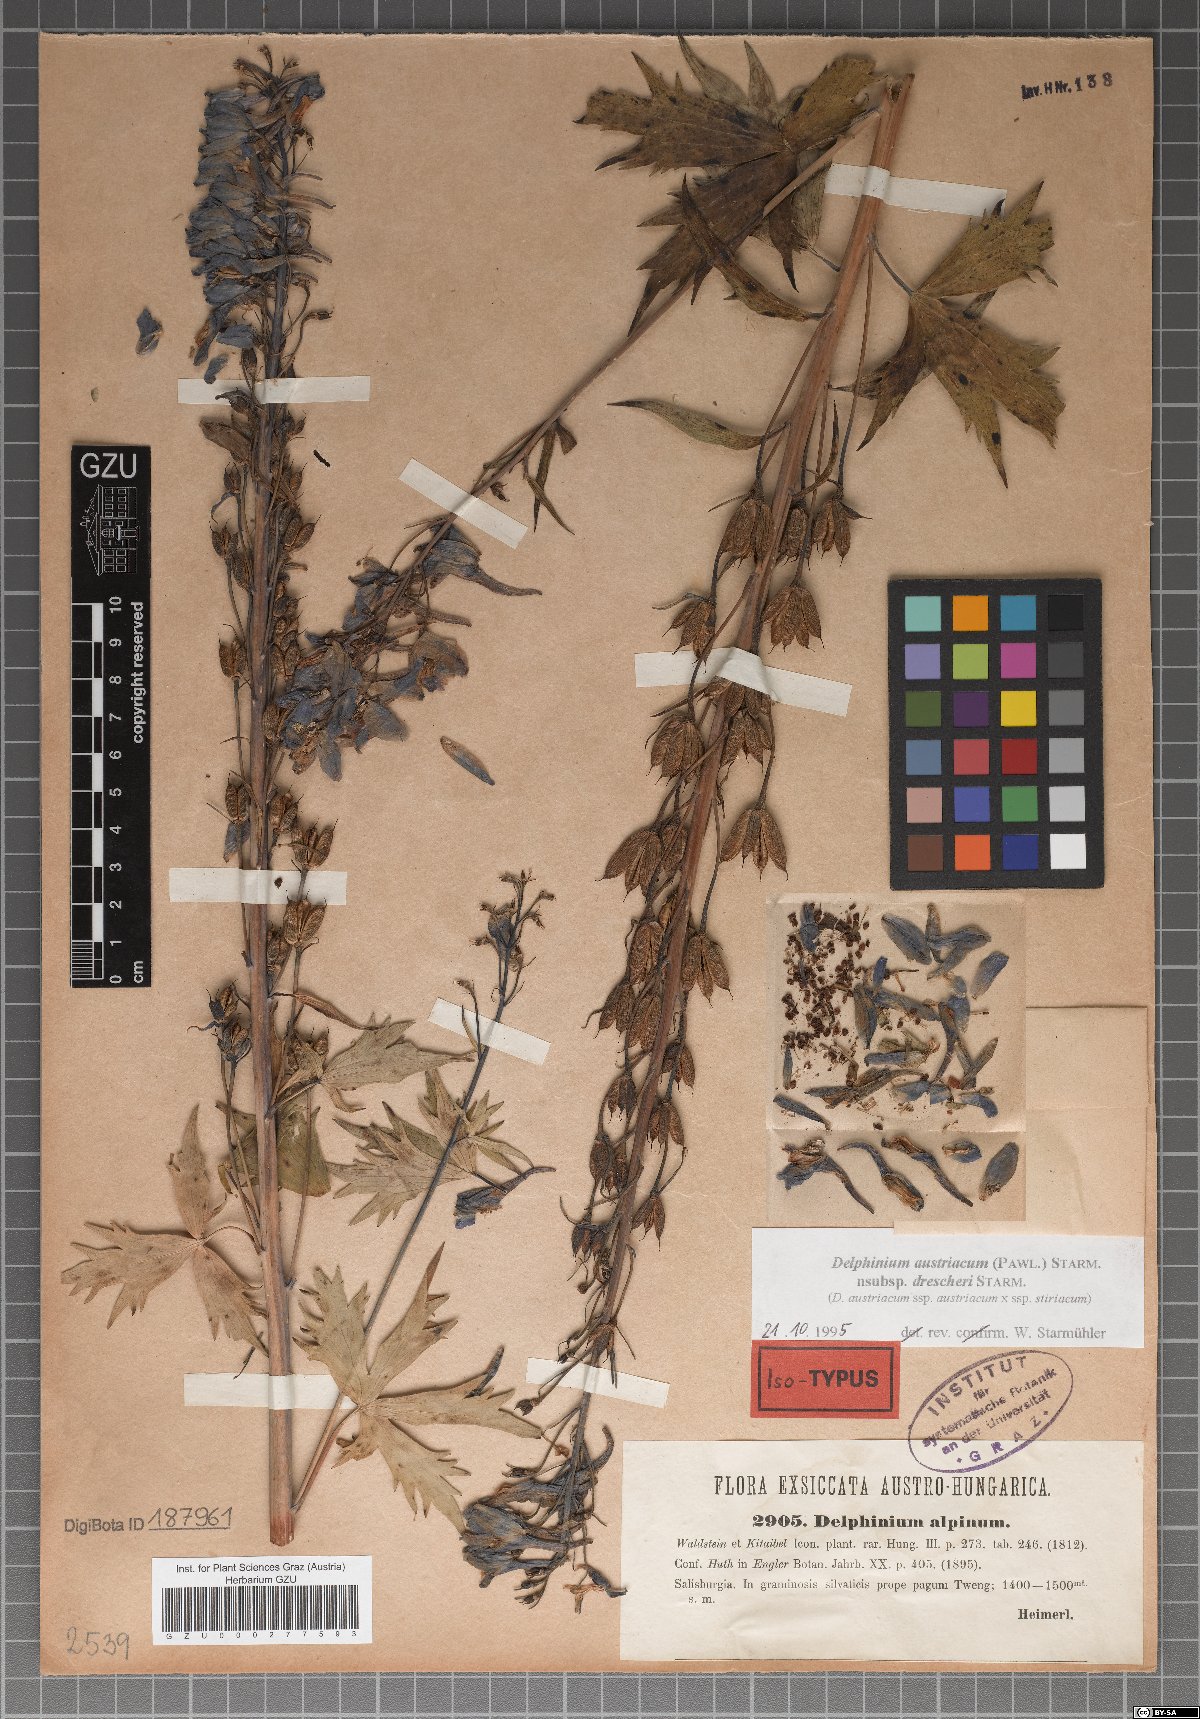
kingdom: Plantae
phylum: Tracheophyta
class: Magnoliopsida
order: Ranunculales
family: Ranunculaceae
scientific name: Ranunculaceae
